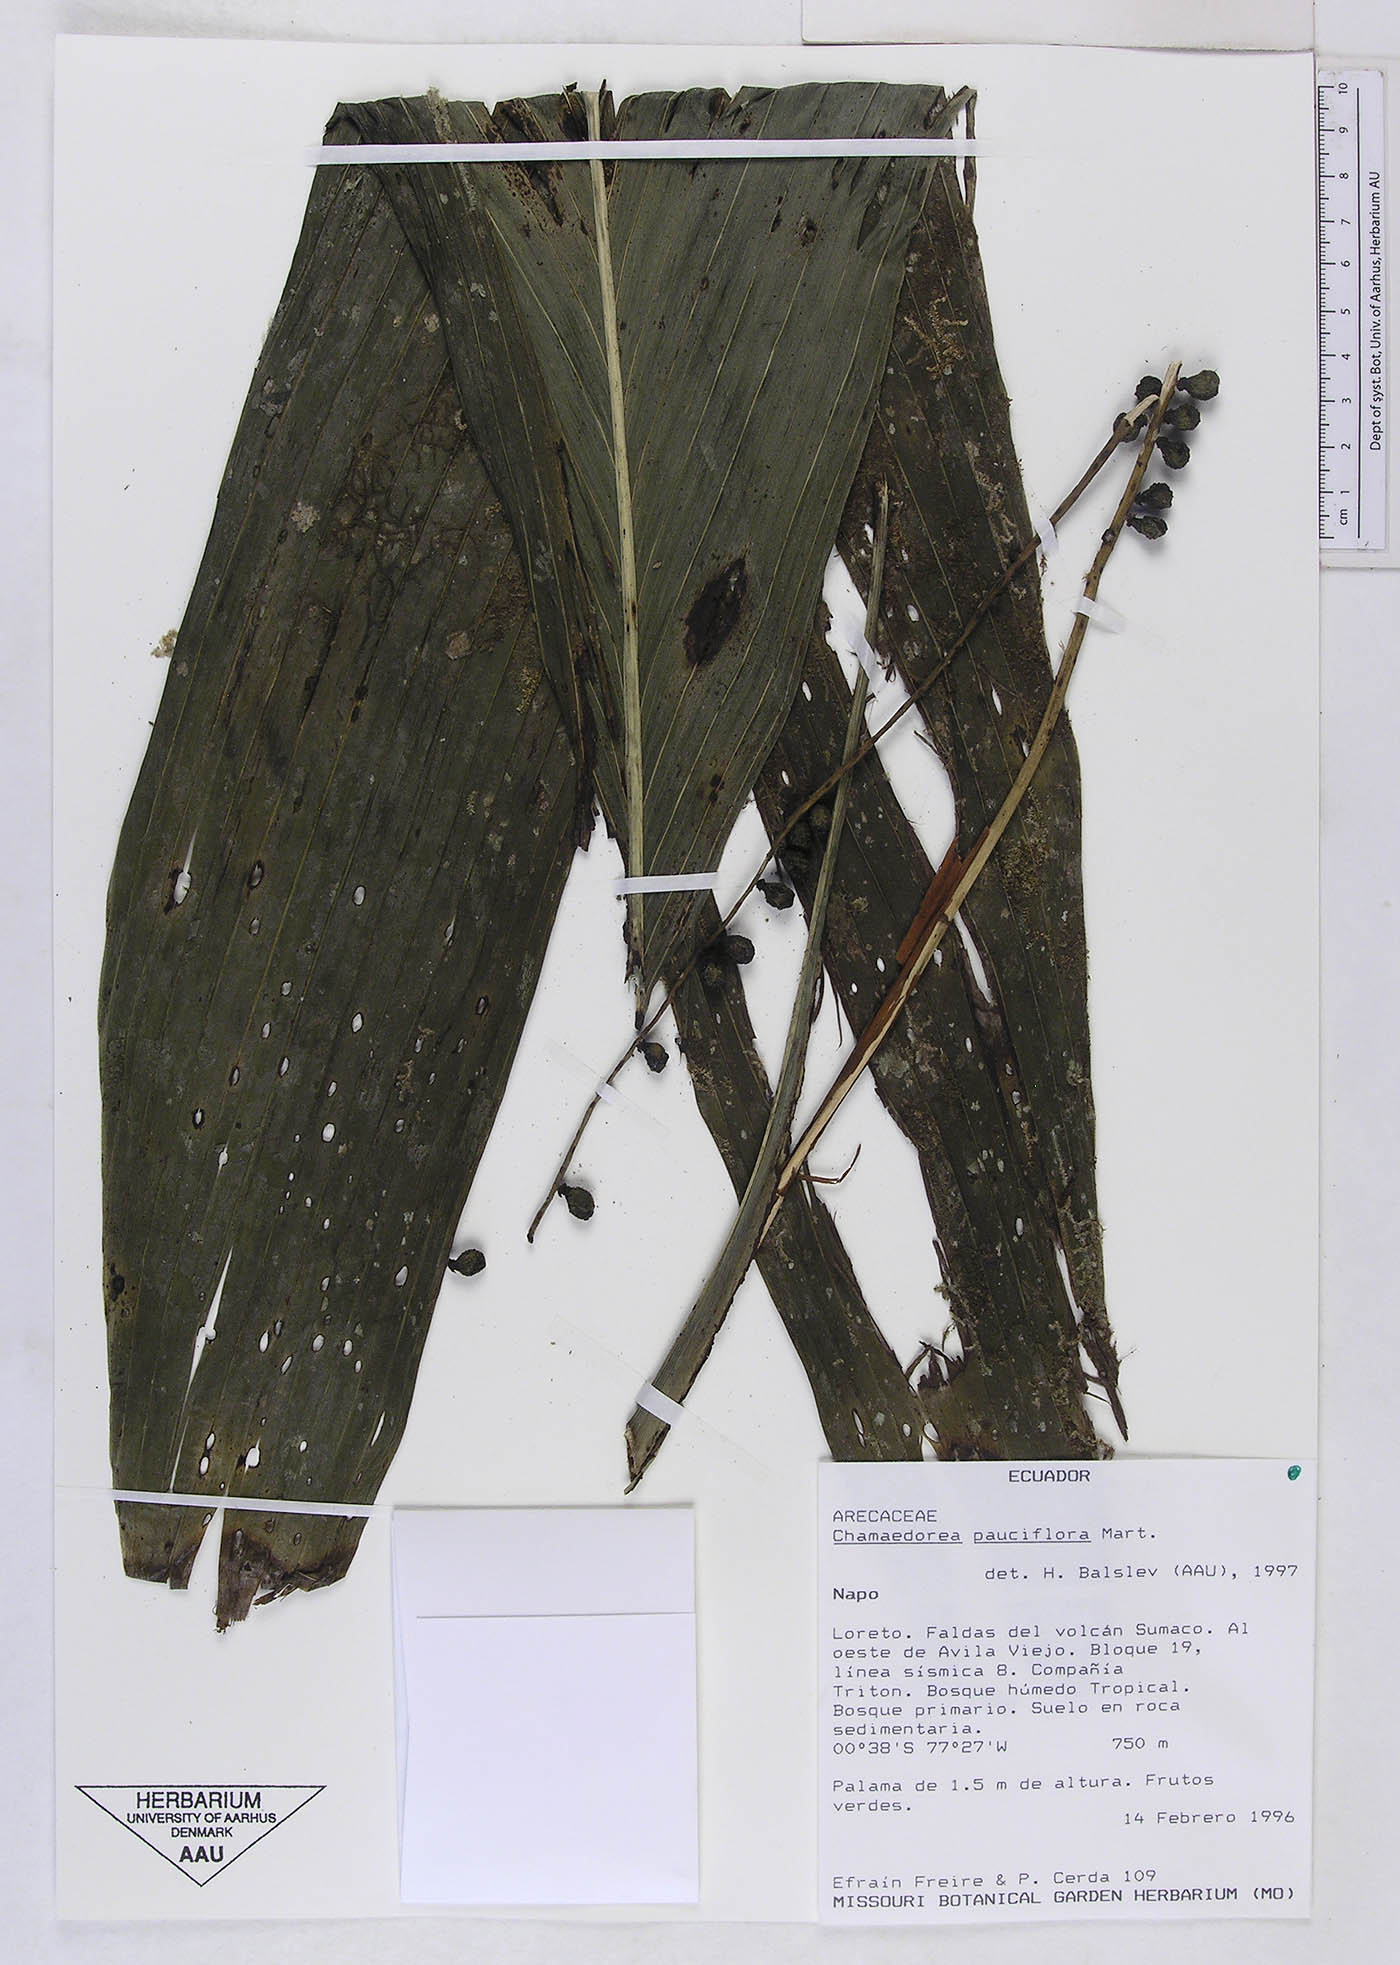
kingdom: Plantae
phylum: Tracheophyta
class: Liliopsida
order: Arecales
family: Arecaceae
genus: Chamaedorea
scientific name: Chamaedorea pauciflora
